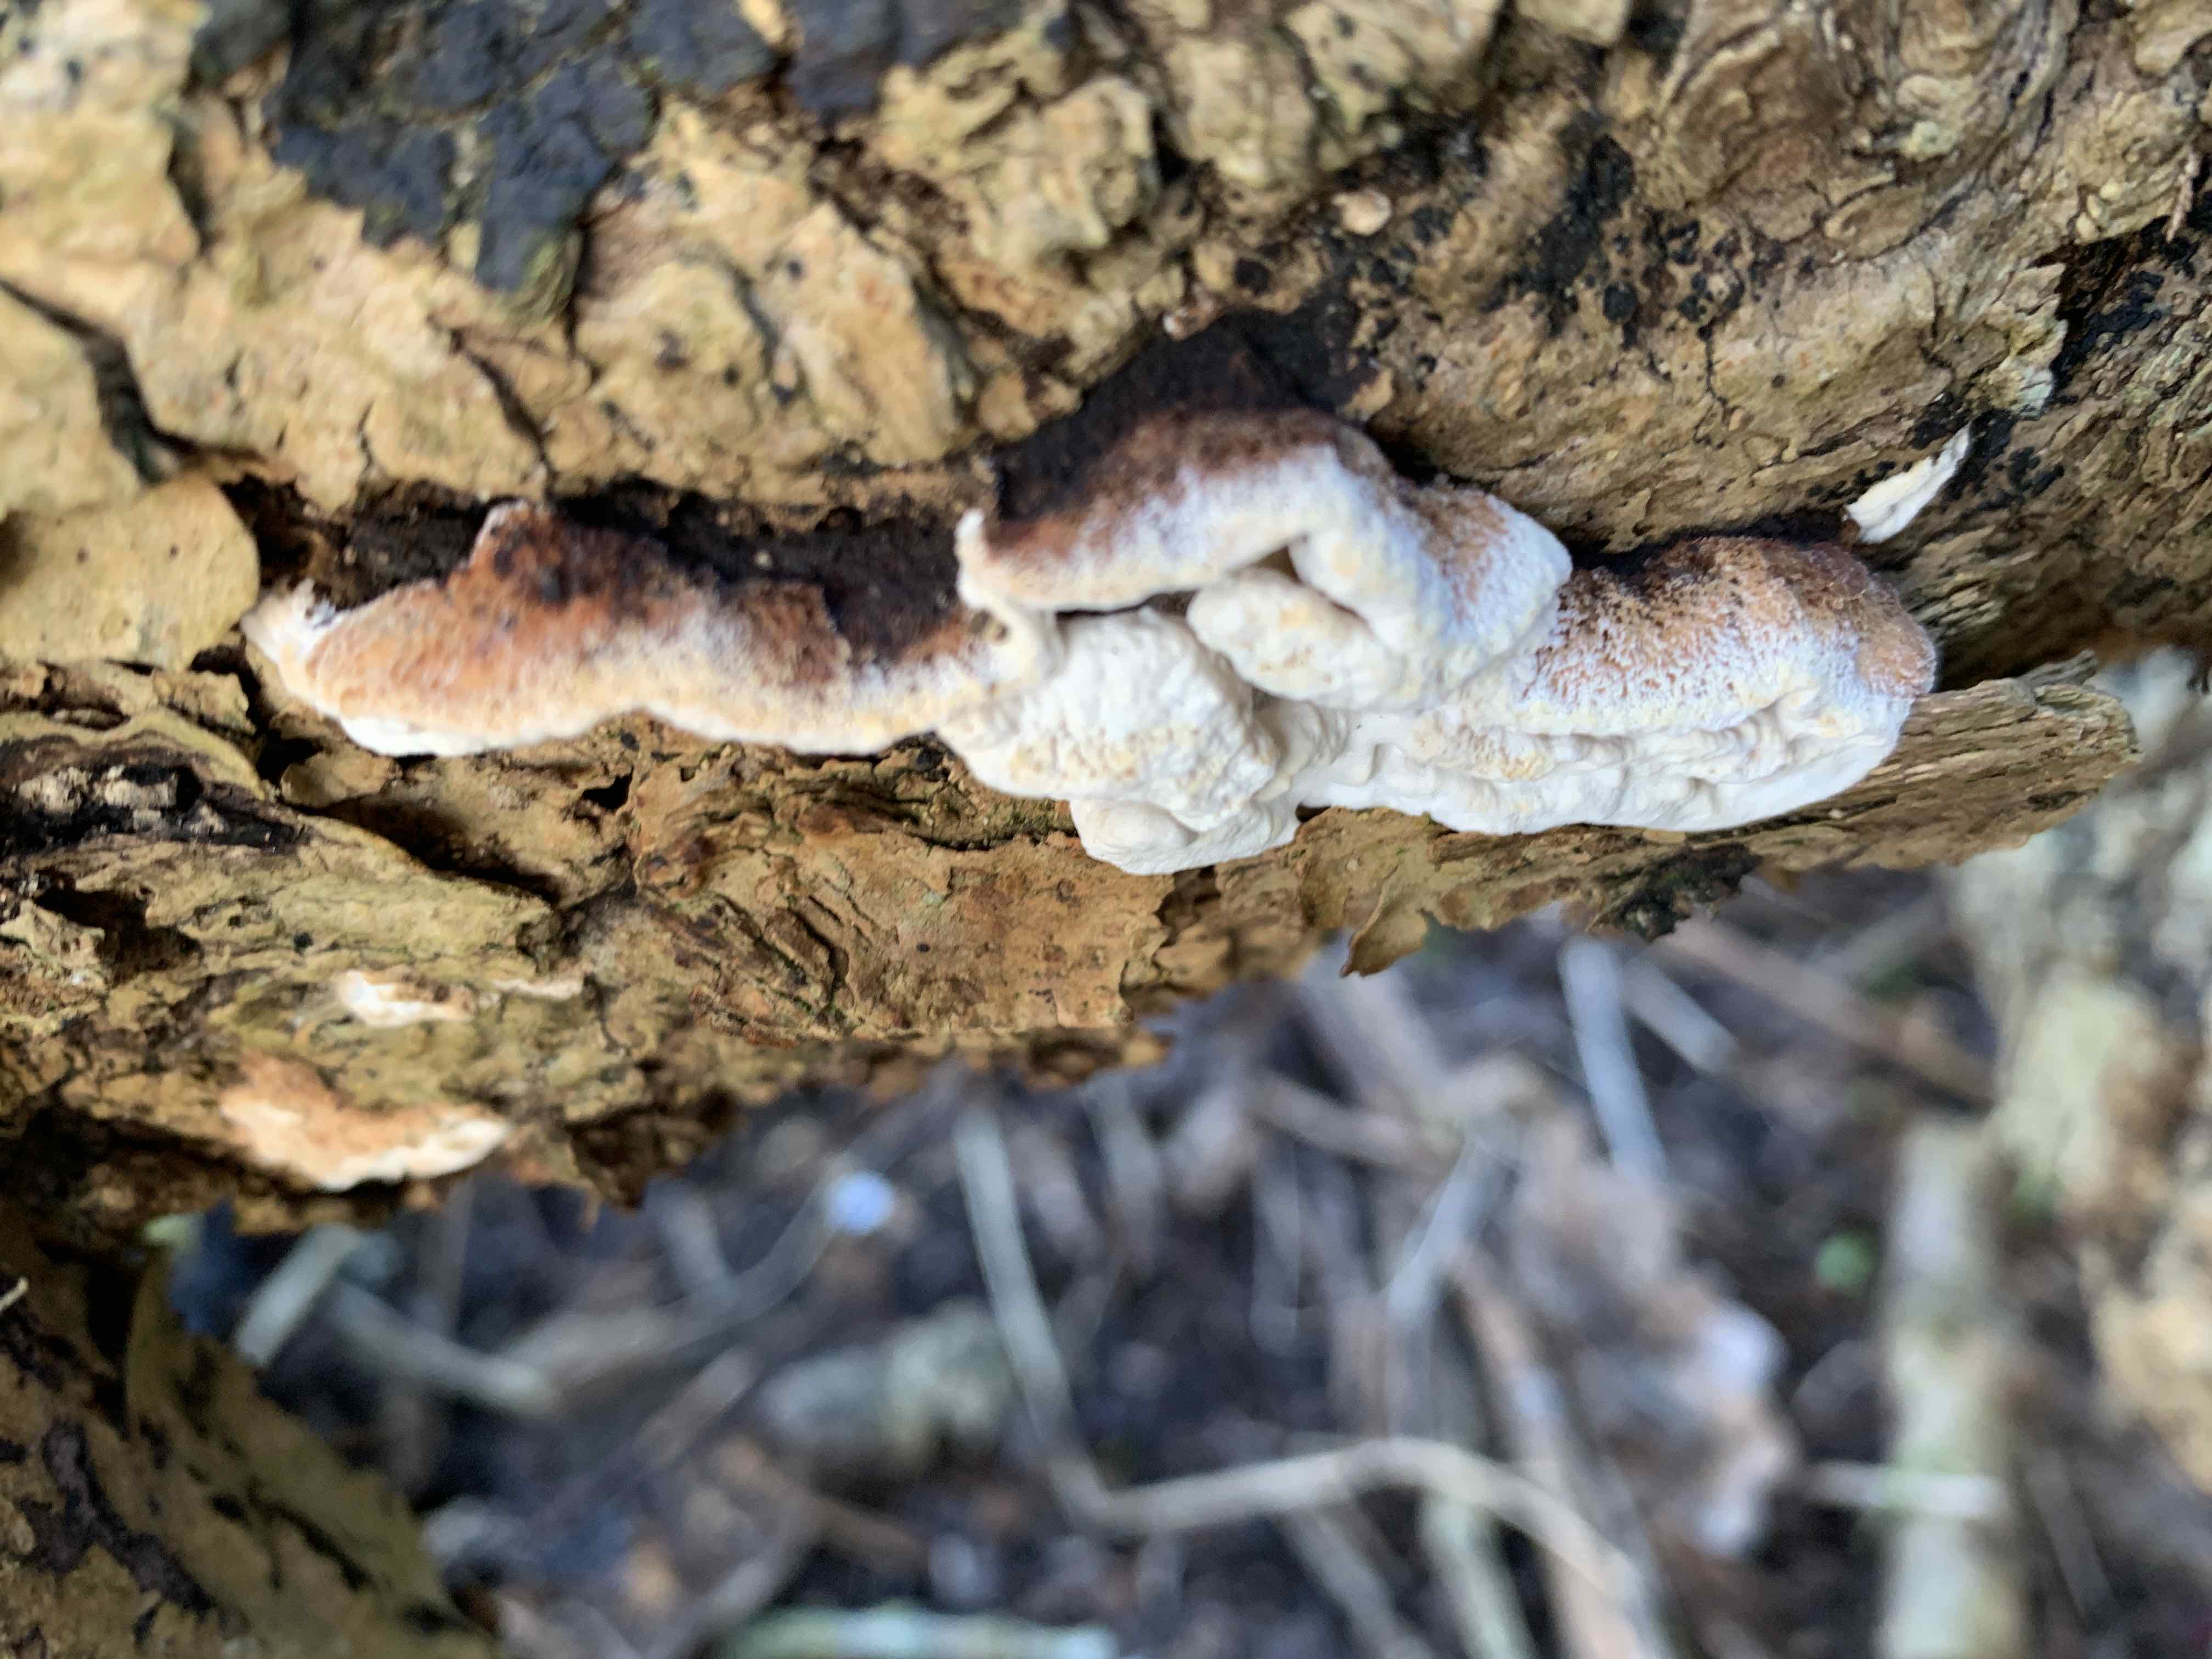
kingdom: Fungi
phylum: Basidiomycota
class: Agaricomycetes
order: Polyporales
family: Incrustoporiaceae
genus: Skeletocutis
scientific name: Skeletocutis nemoralis
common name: stor krystalporesvamp
